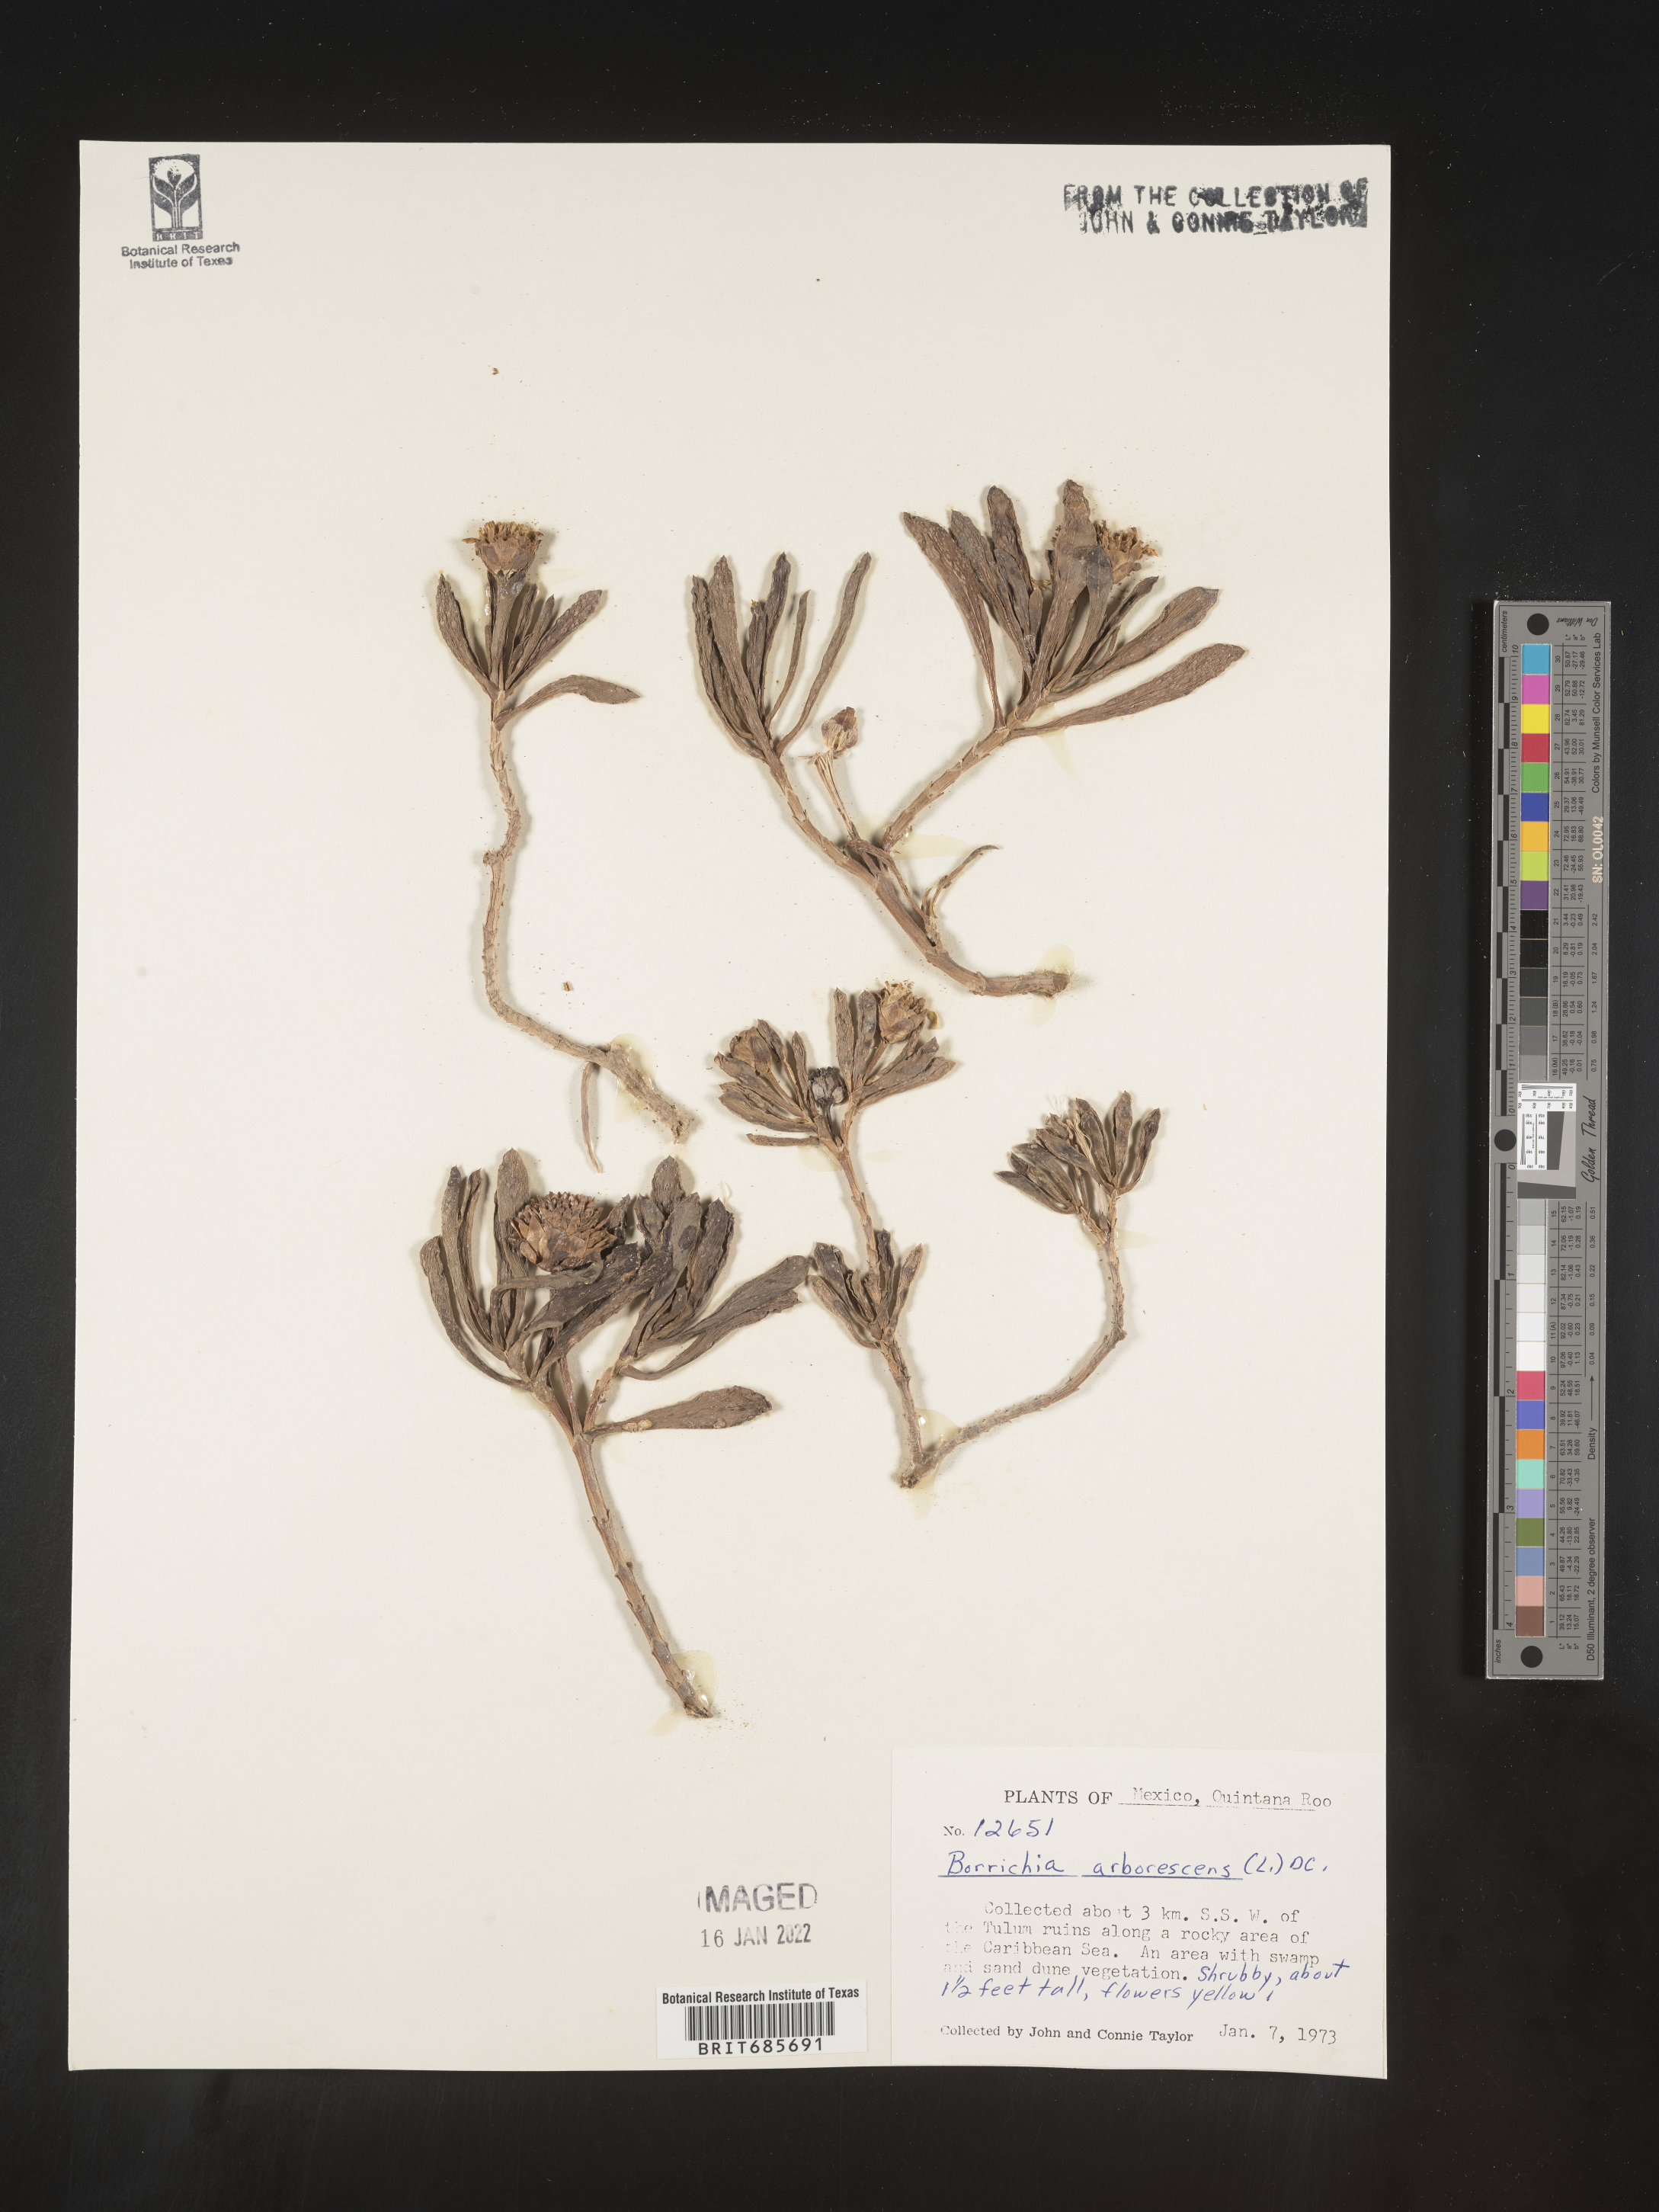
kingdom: Plantae
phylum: Tracheophyta
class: Magnoliopsida
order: Asterales
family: Asteraceae
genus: Borrichia
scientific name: Borrichia
